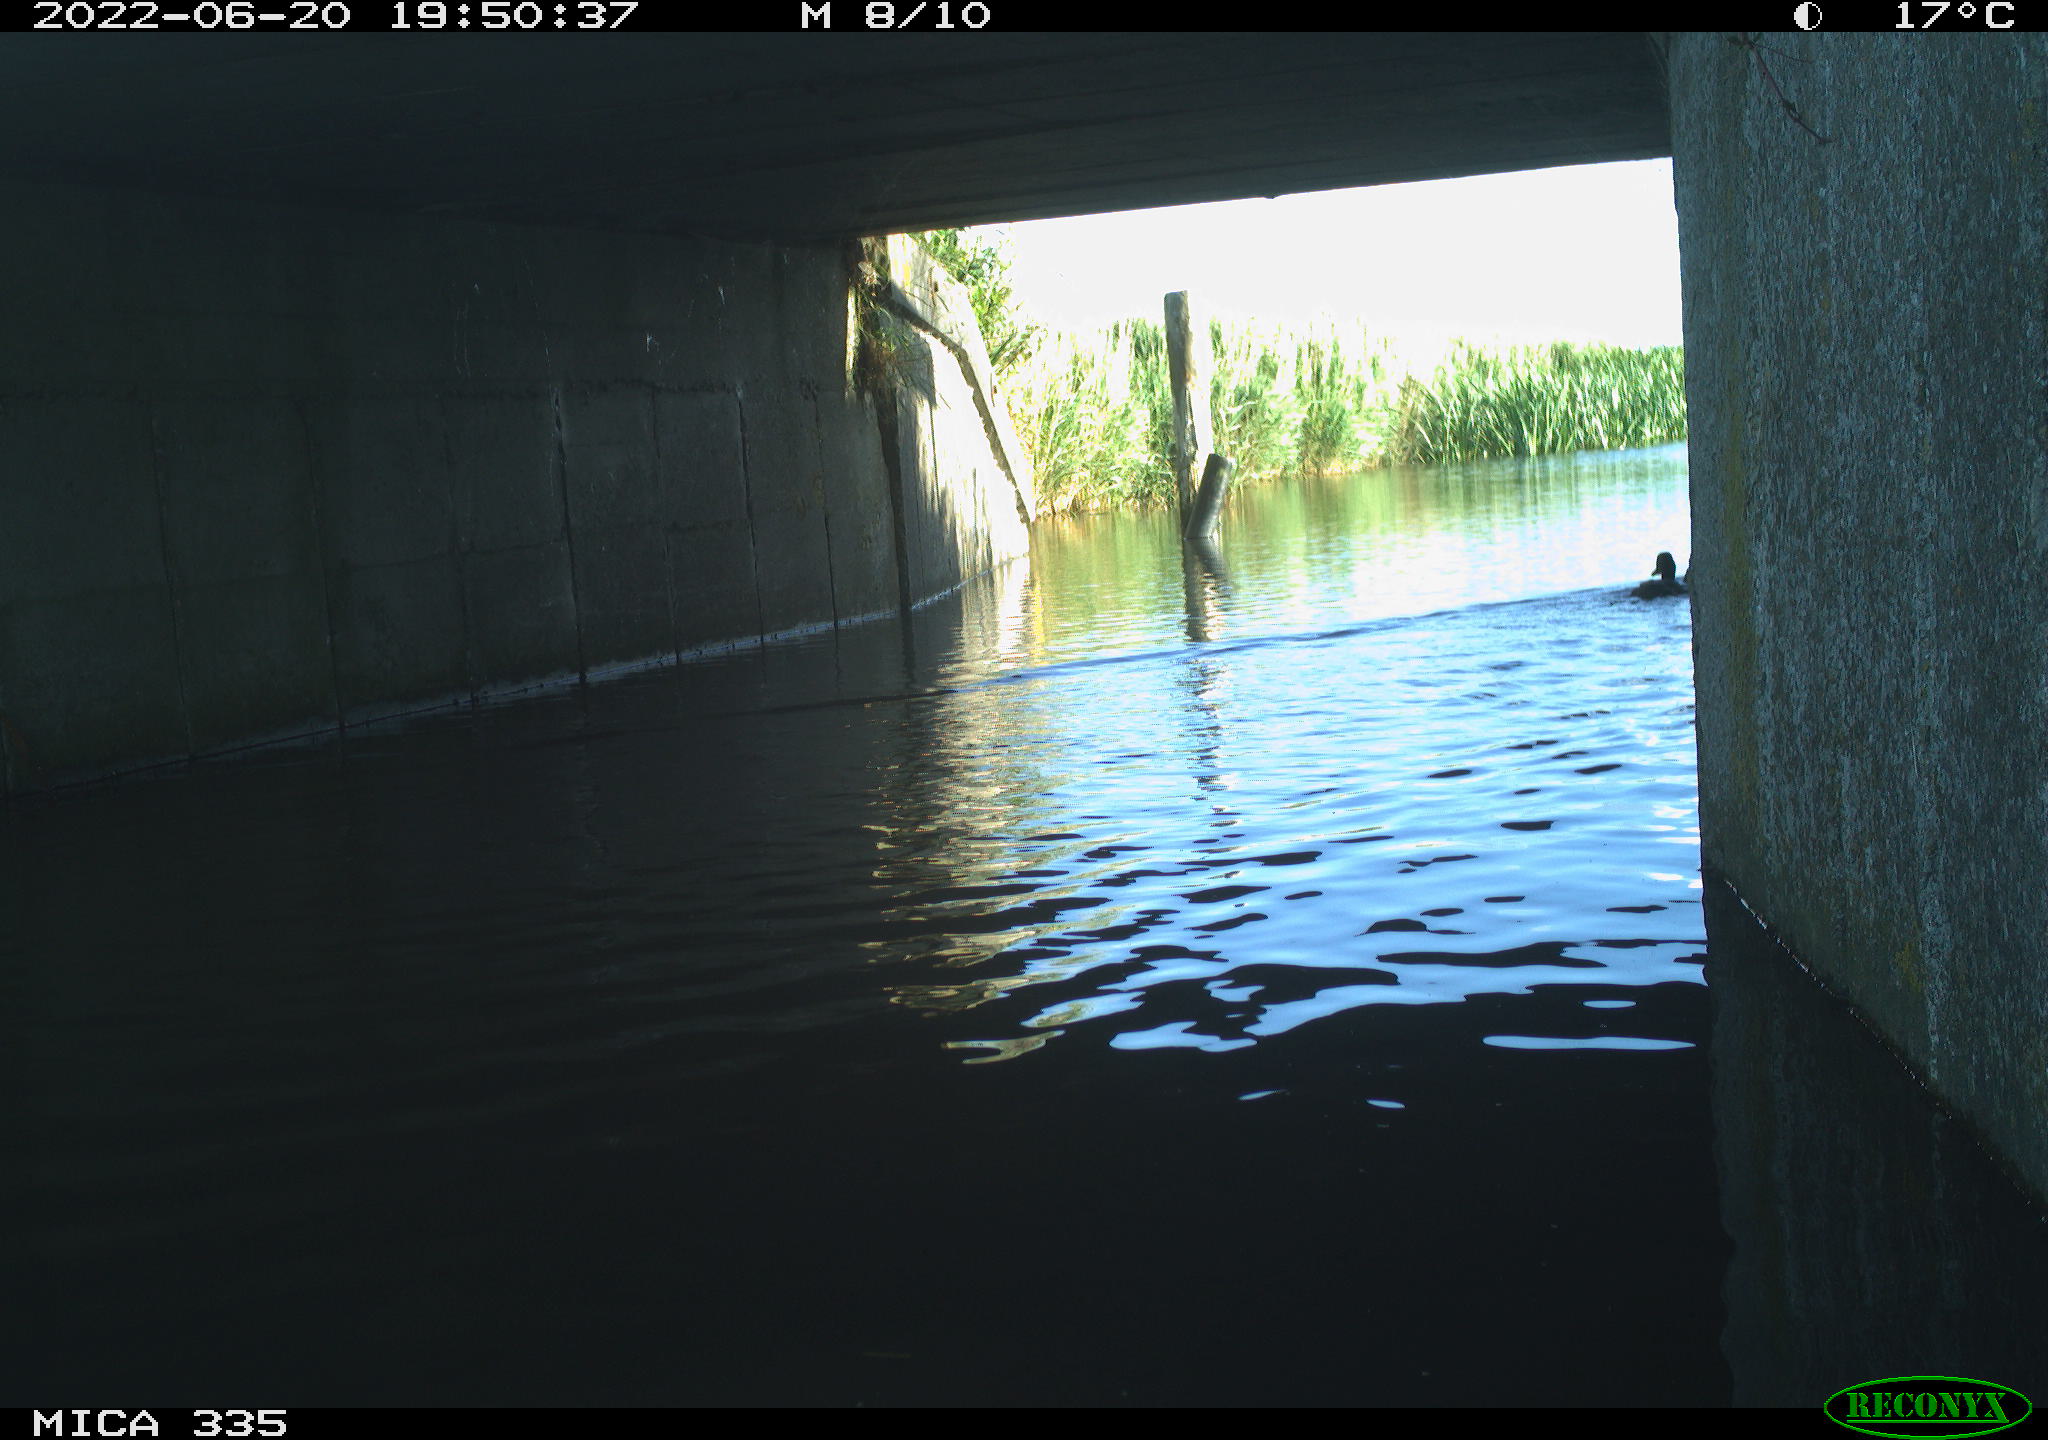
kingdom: Animalia
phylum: Chordata
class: Aves
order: Anseriformes
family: Anatidae
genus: Anas
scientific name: Anas platyrhynchos
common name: Mallard
